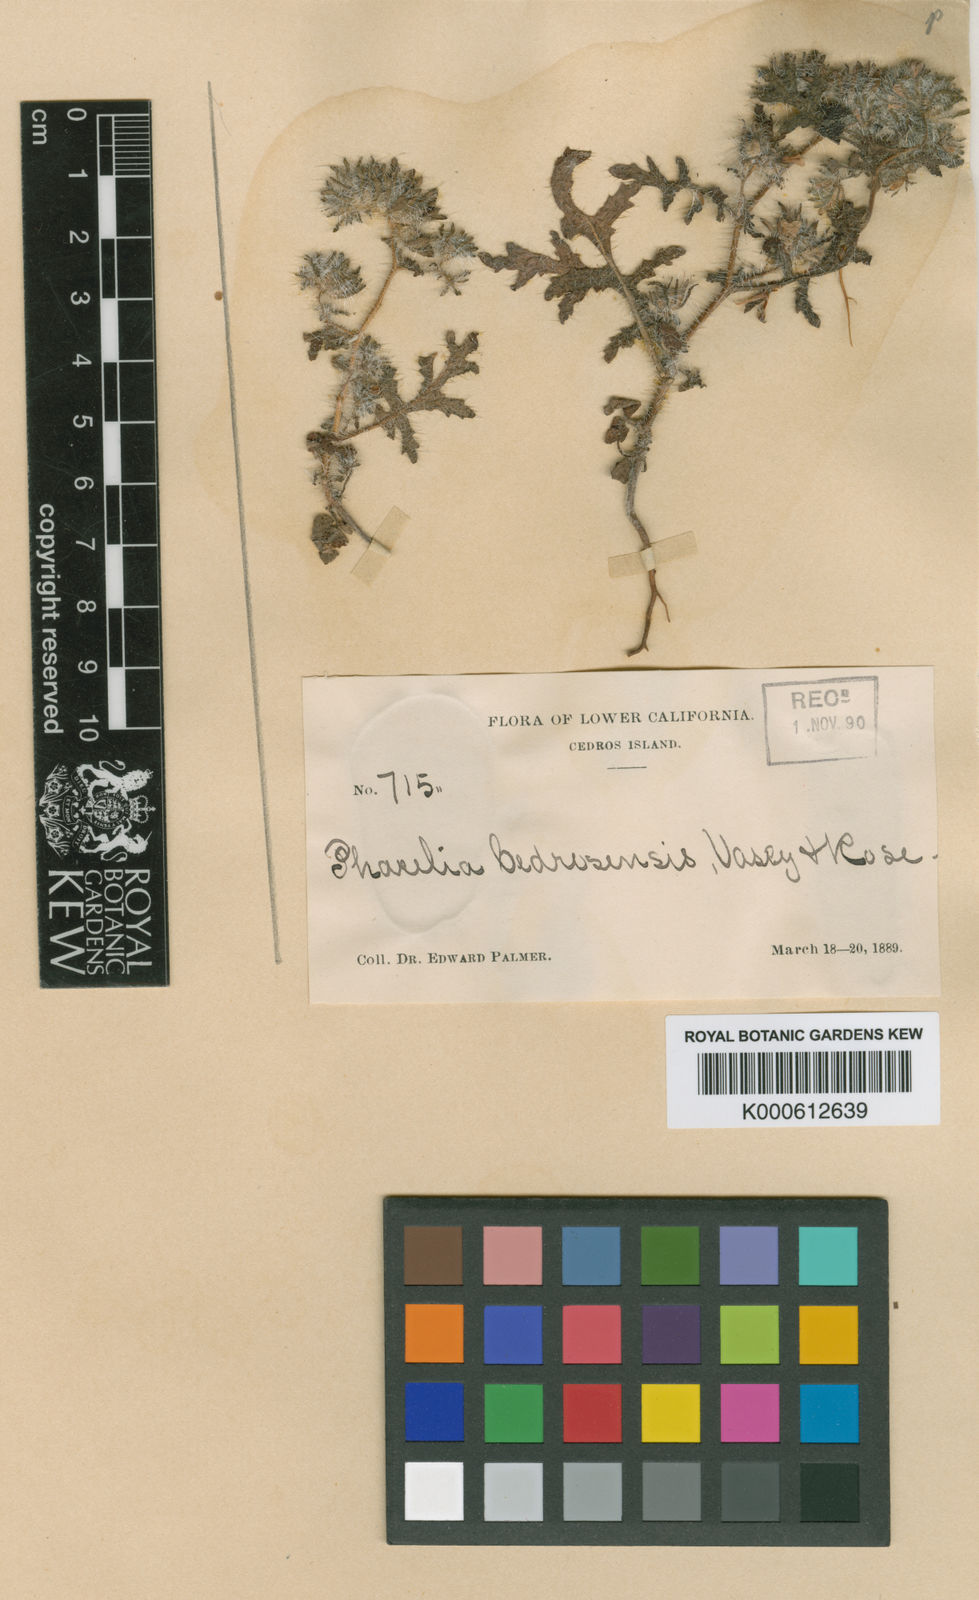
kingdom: Plantae
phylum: Tracheophyta
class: Magnoliopsida
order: Boraginales
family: Hydrophyllaceae
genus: Phacelia
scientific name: Phacelia cedrosensis
